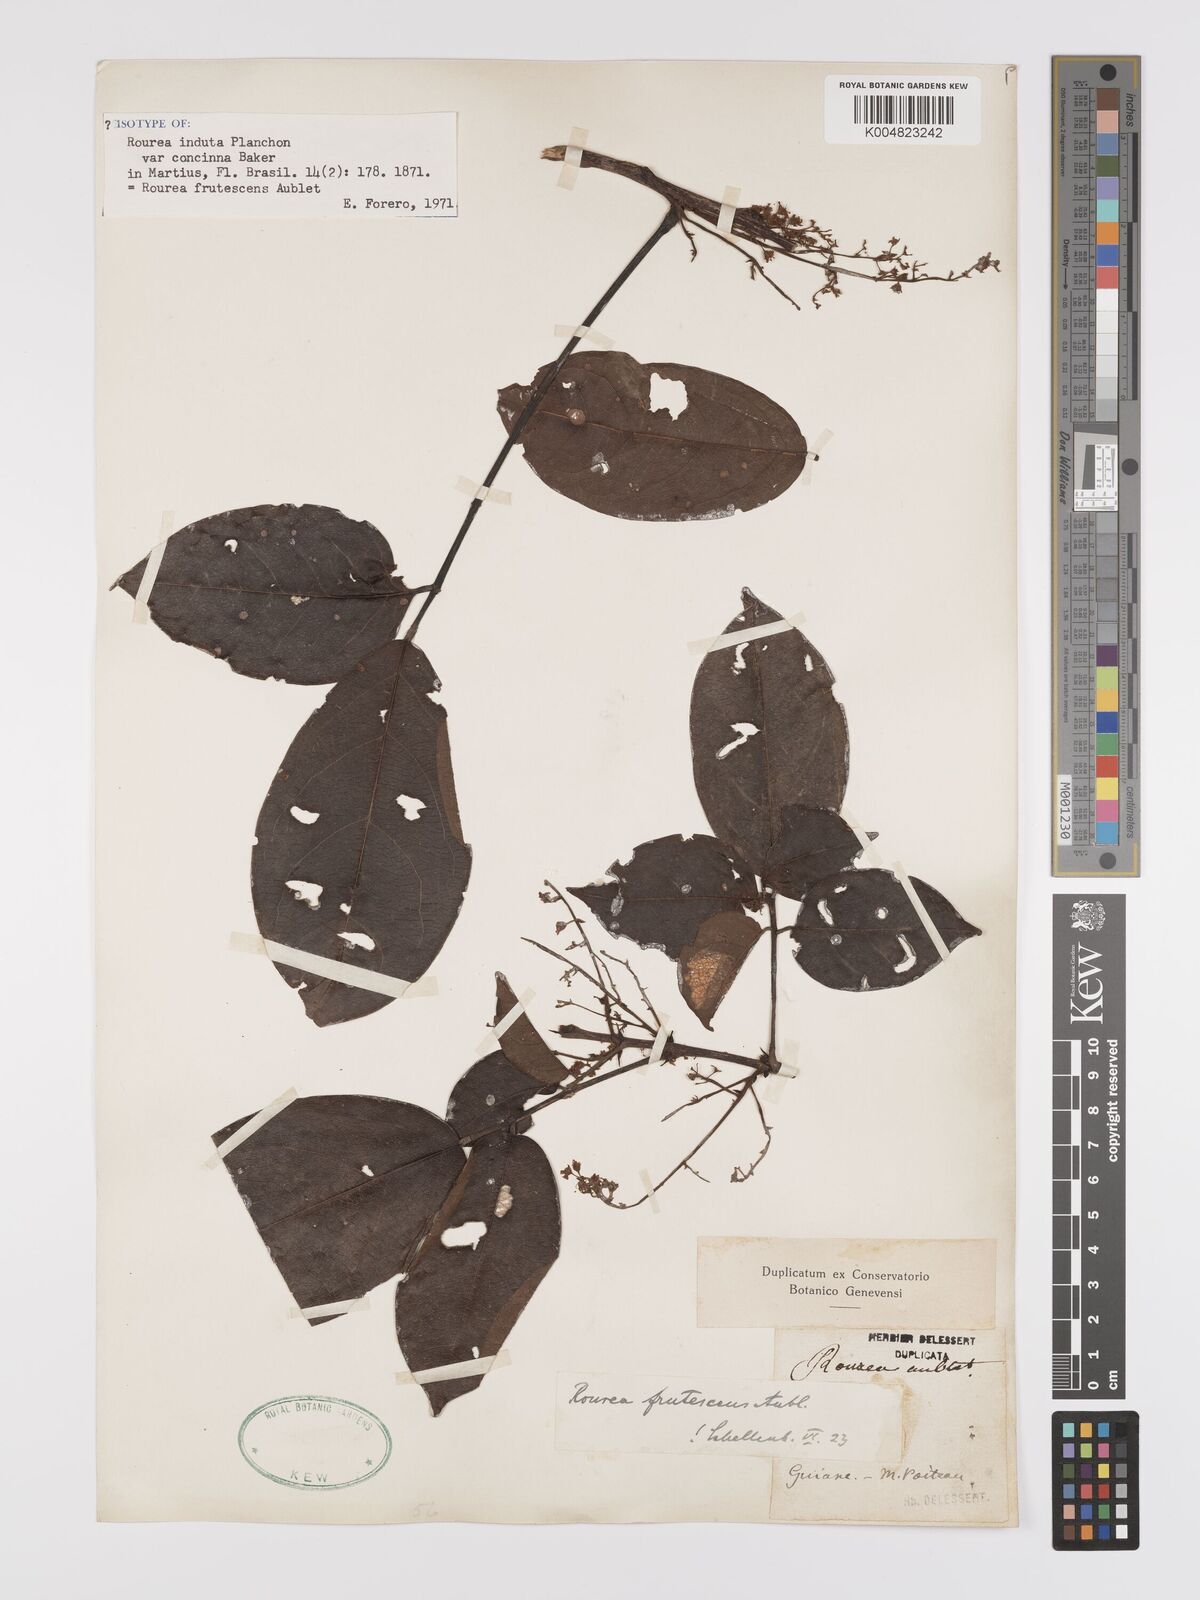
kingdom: Plantae
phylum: Tracheophyta
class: Magnoliopsida
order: Oxalidales
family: Connaraceae
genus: Rourea
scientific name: Rourea frutescens
